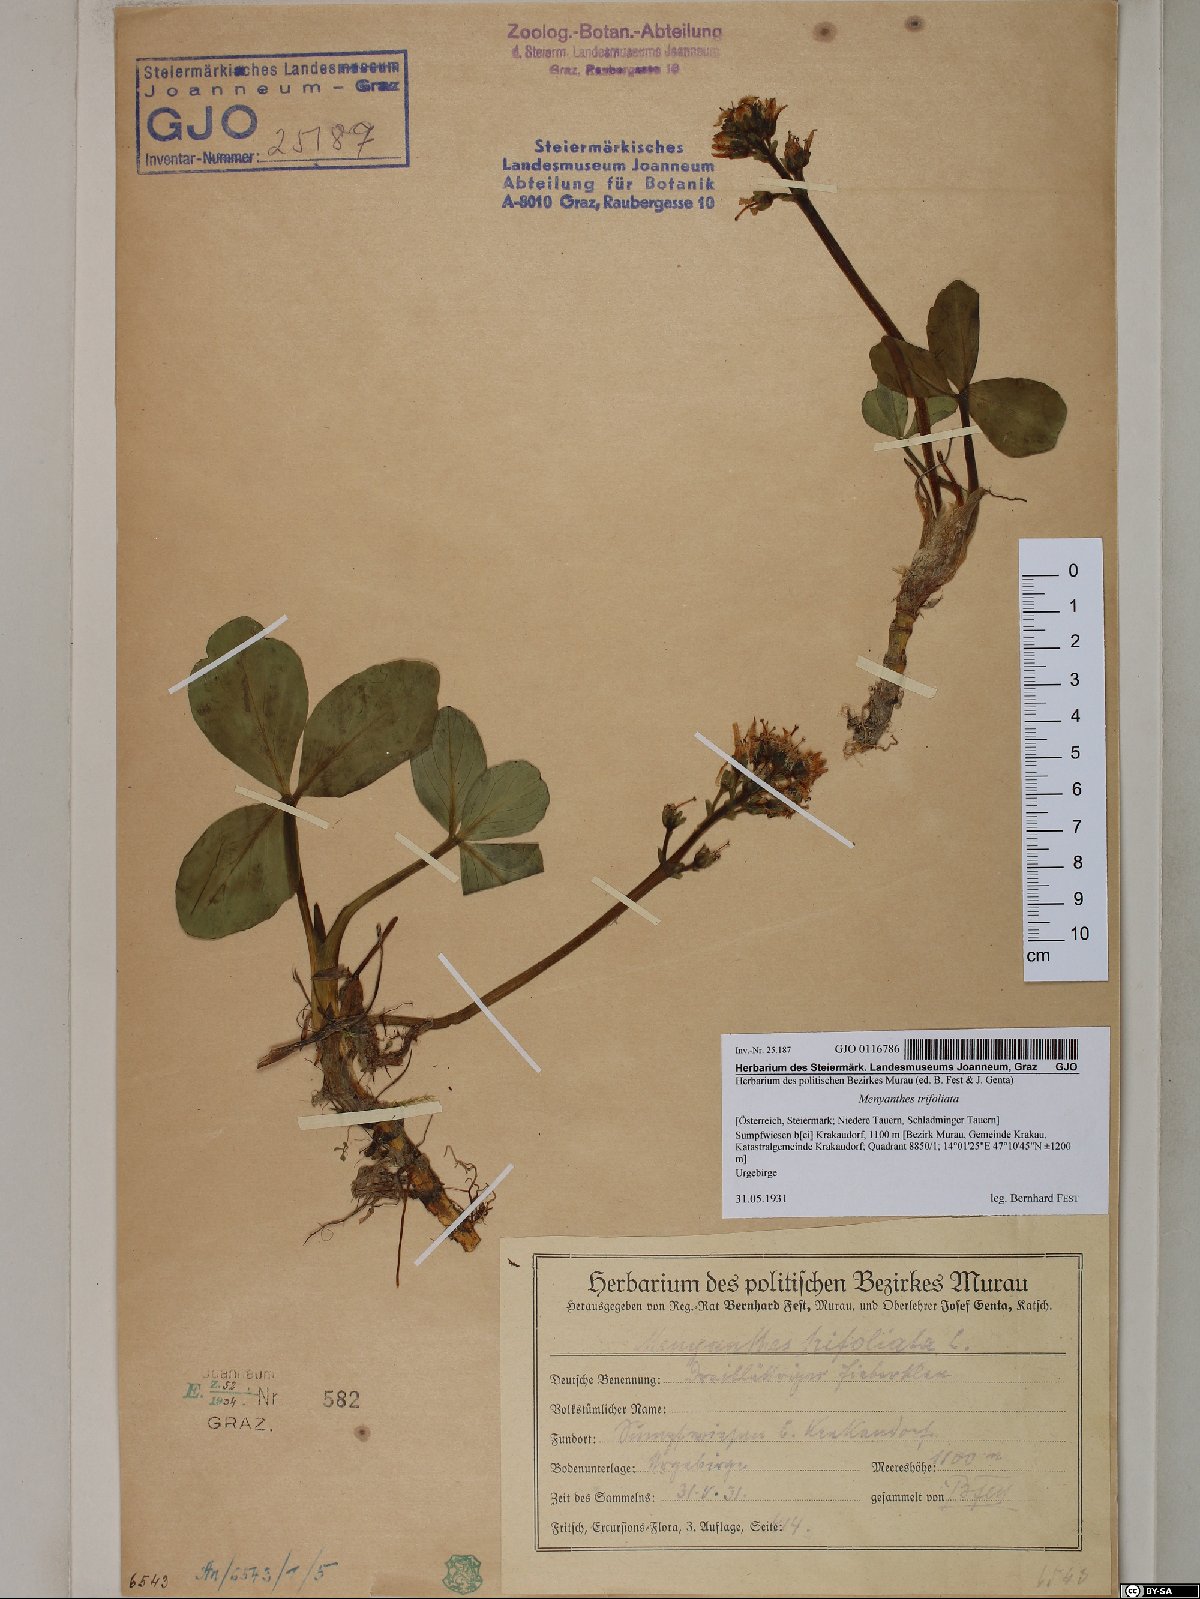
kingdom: Plantae
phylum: Tracheophyta
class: Magnoliopsida
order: Asterales
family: Menyanthaceae
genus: Menyanthes
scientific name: Menyanthes trifoliata
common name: Bogbean
